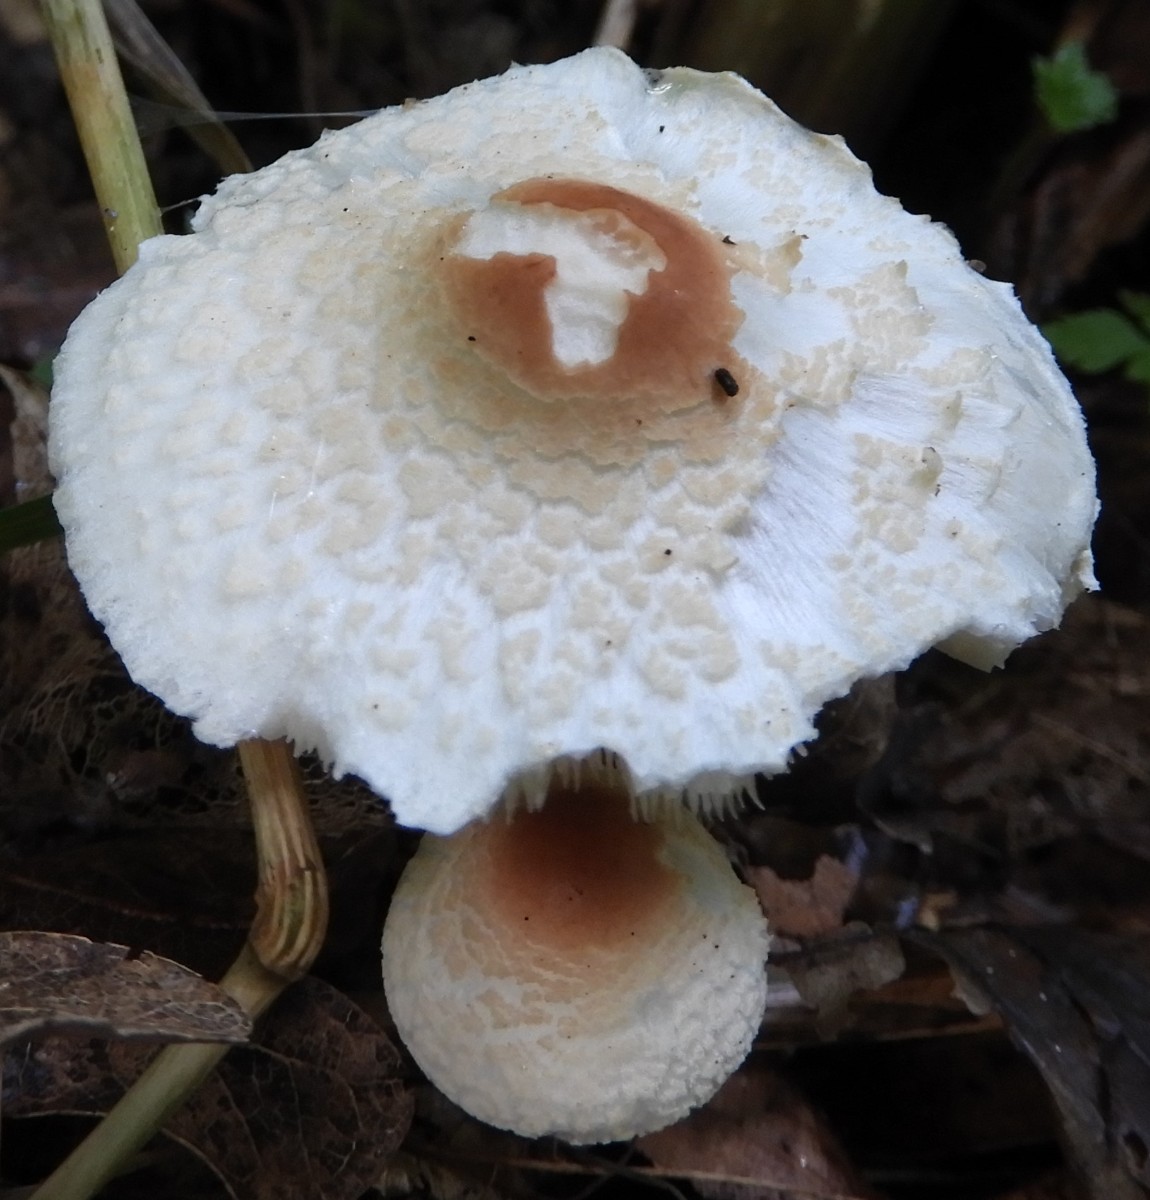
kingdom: Fungi
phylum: Basidiomycota
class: Agaricomycetes
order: Agaricales
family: Agaricaceae
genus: Lepiota
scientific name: Lepiota cristata
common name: stinkende parasolhat
